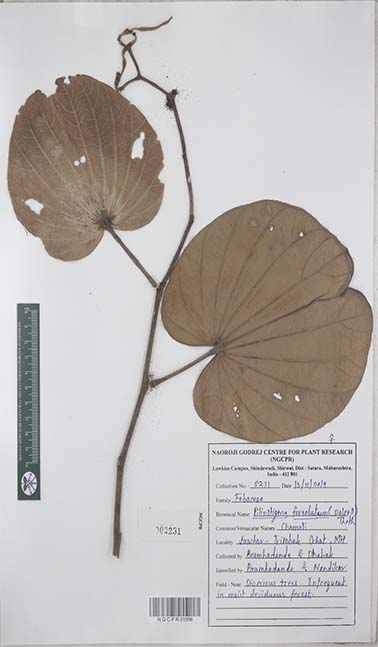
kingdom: Plantae
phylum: Tracheophyta
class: Magnoliopsida
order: Fabales
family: Fabaceae
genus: Piliostigma
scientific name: Piliostigma foveolatum
